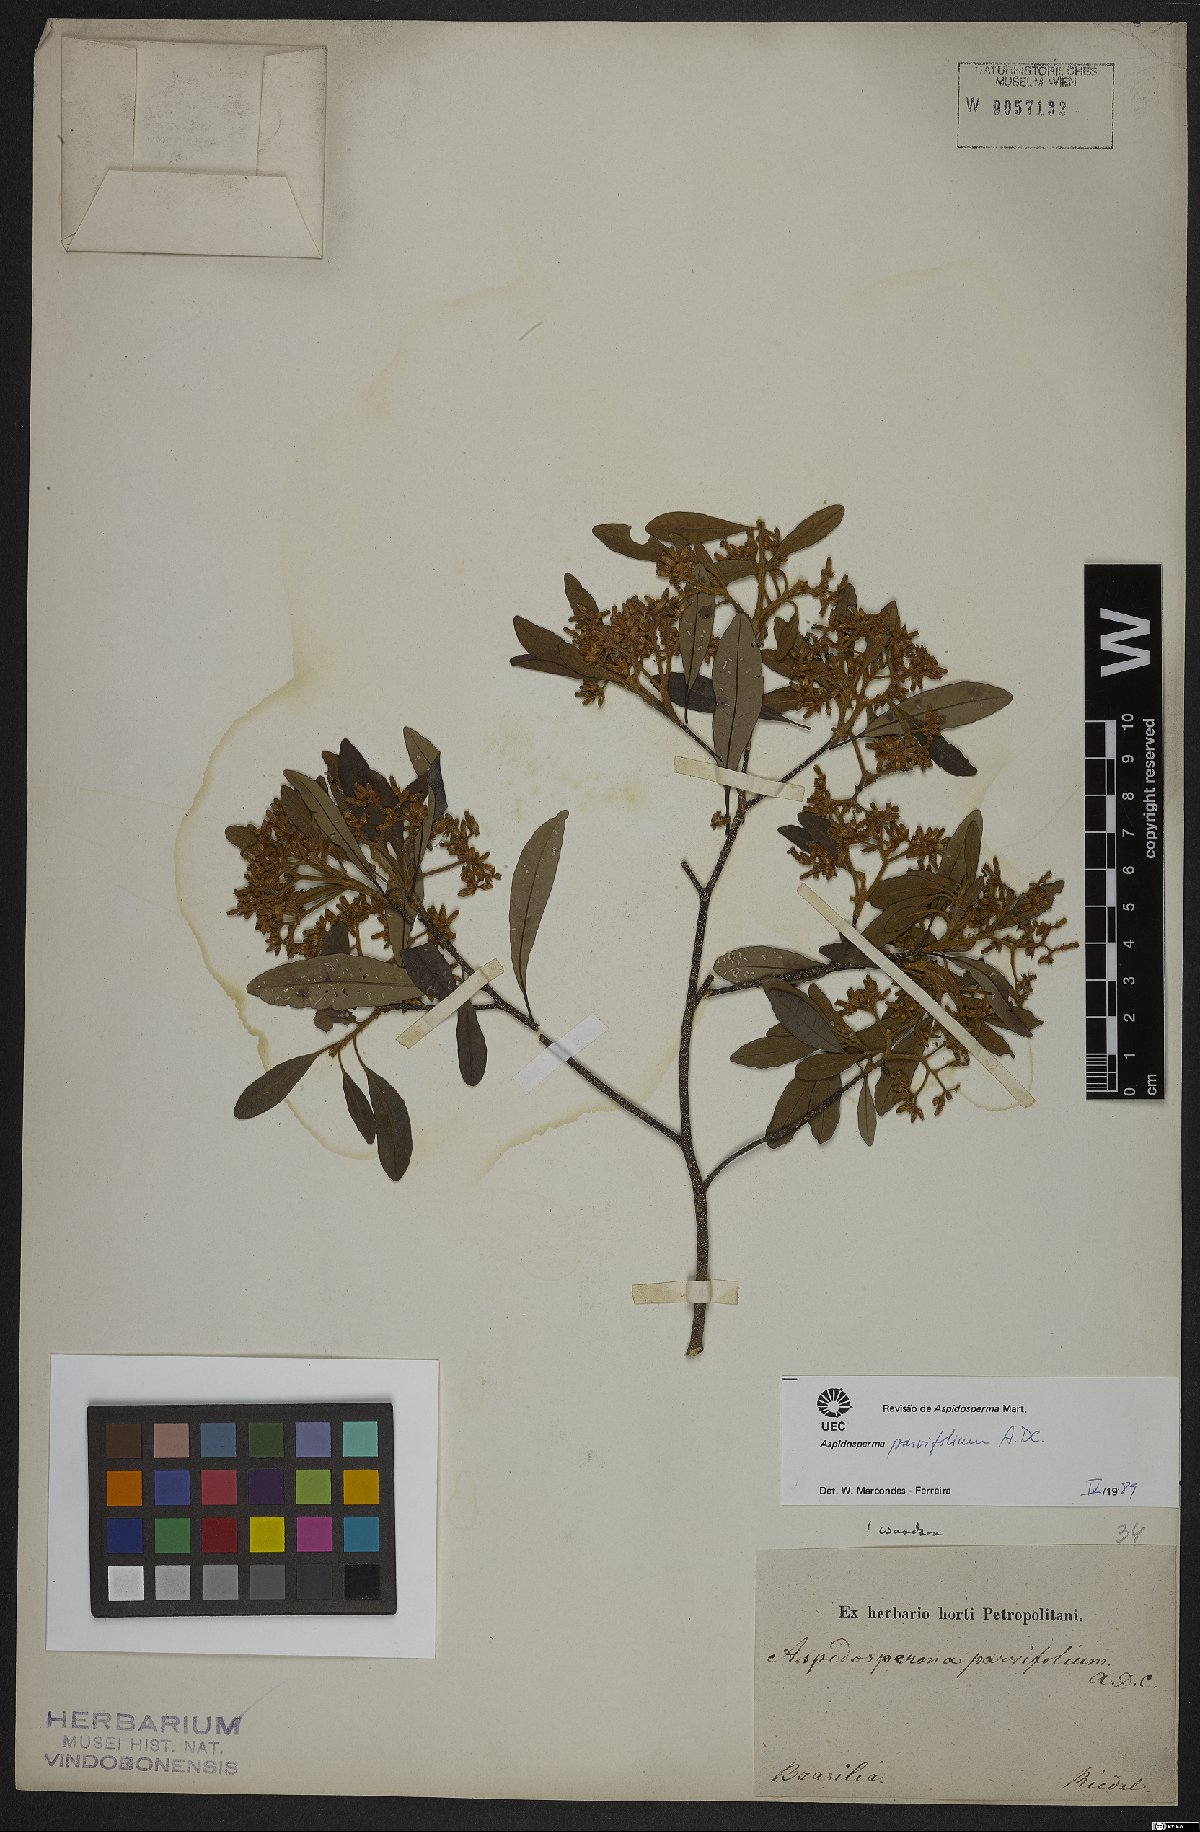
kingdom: Plantae
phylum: Tracheophyta
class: Magnoliopsida
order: Gentianales
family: Apocynaceae
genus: Aspidosperma
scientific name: Aspidosperma parvifolium
